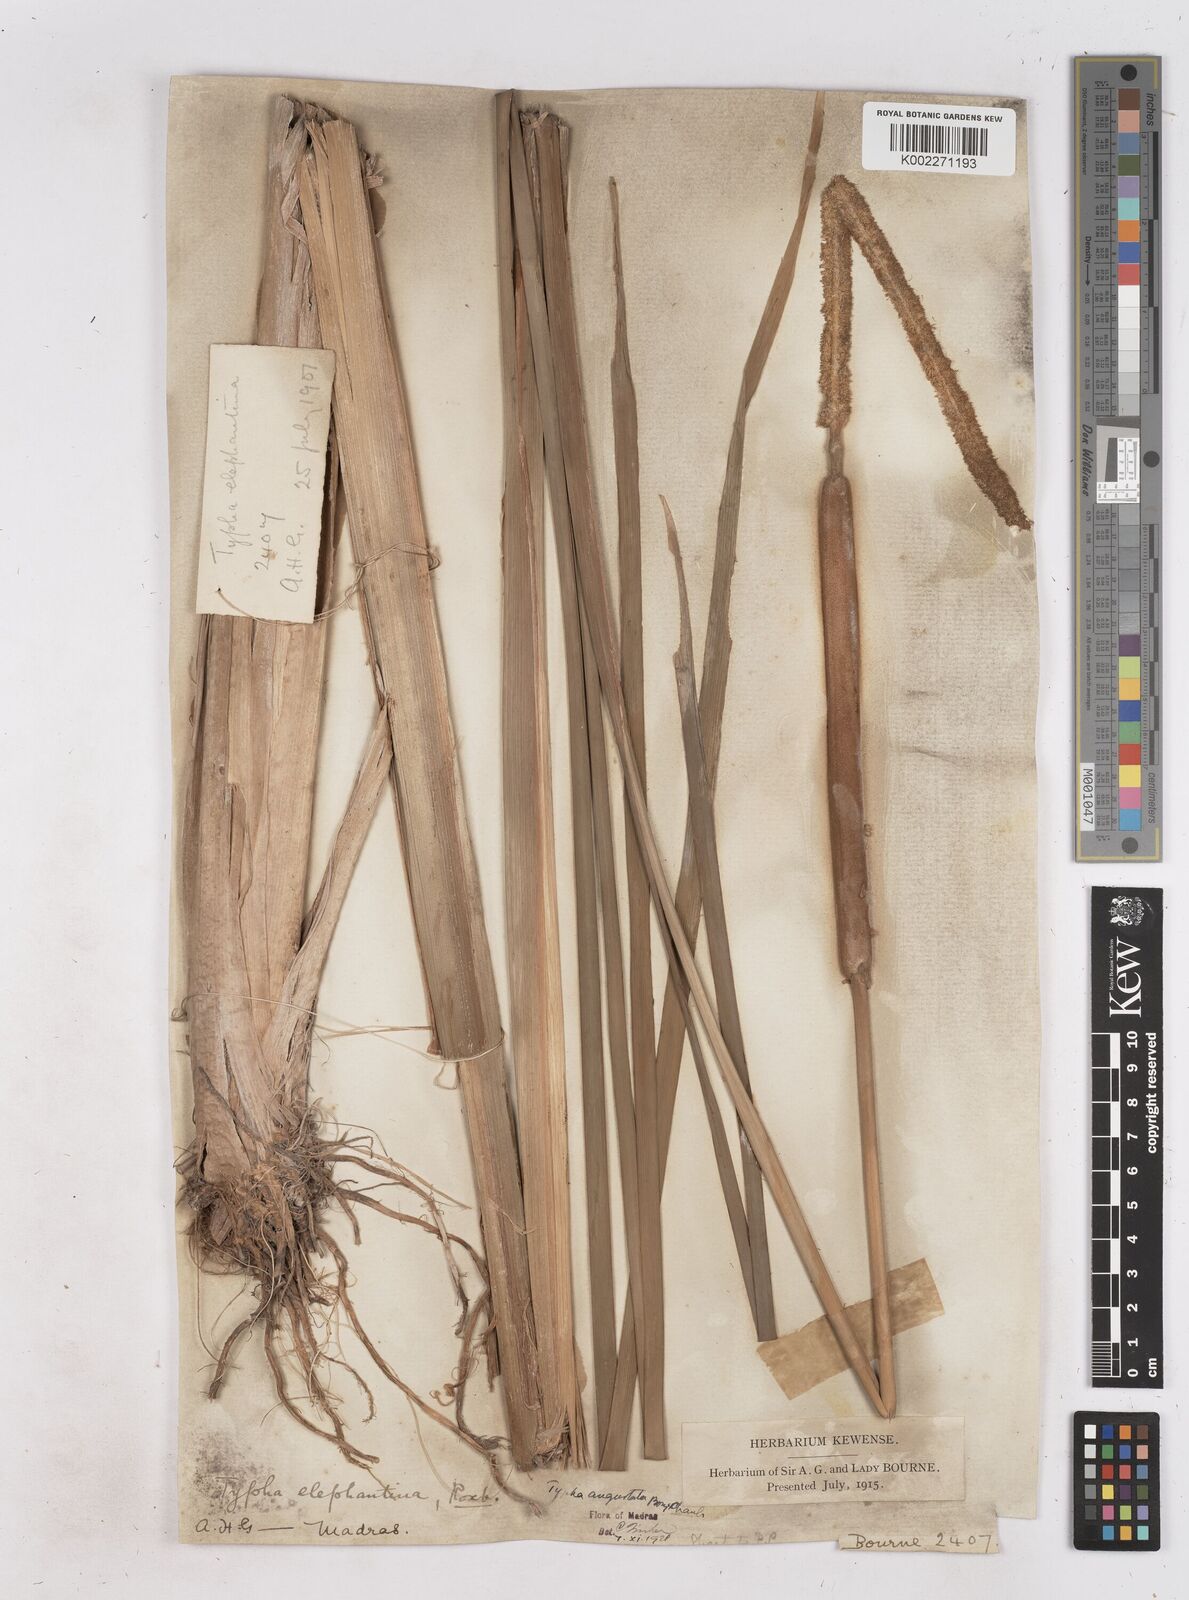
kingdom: Plantae
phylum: Tracheophyta
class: Liliopsida
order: Poales
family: Typhaceae
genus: Typha
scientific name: Typha domingensis
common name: Southern cattail
